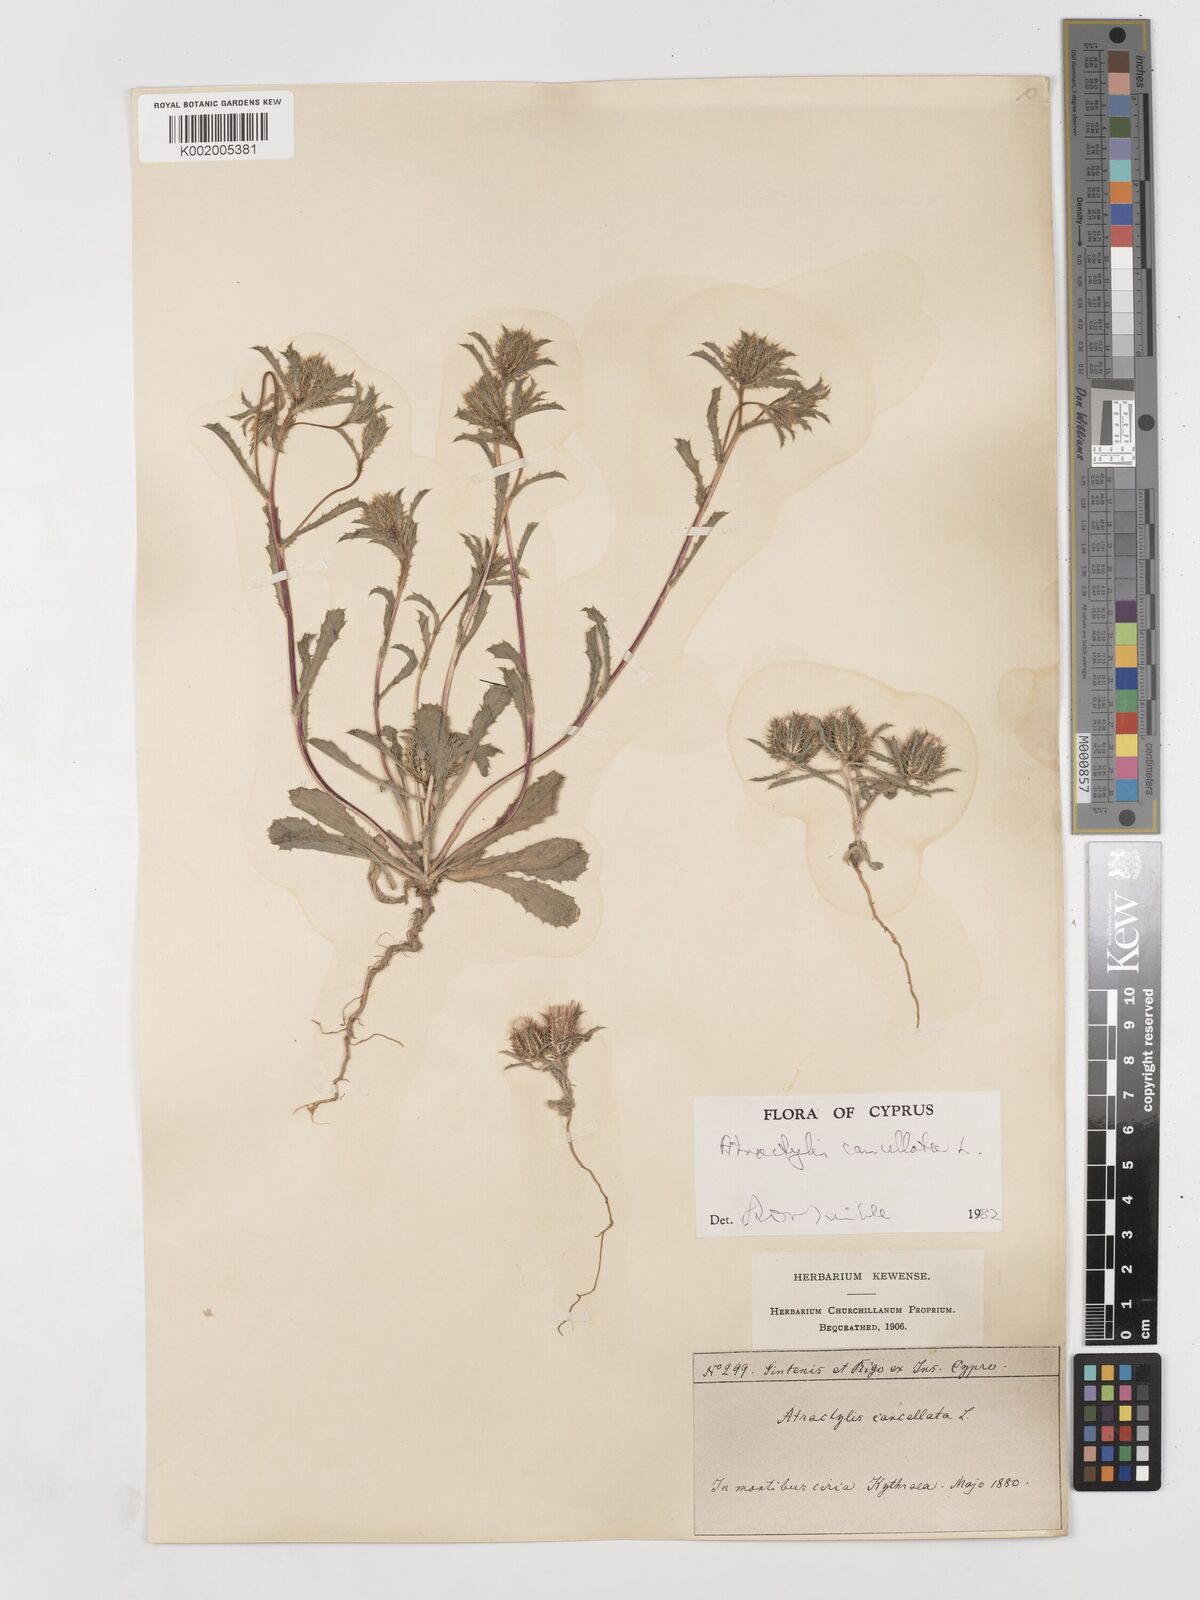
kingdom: Plantae
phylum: Tracheophyta
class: Magnoliopsida
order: Asterales
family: Asteraceae
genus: Atractylis
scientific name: Atractylis cancellata
